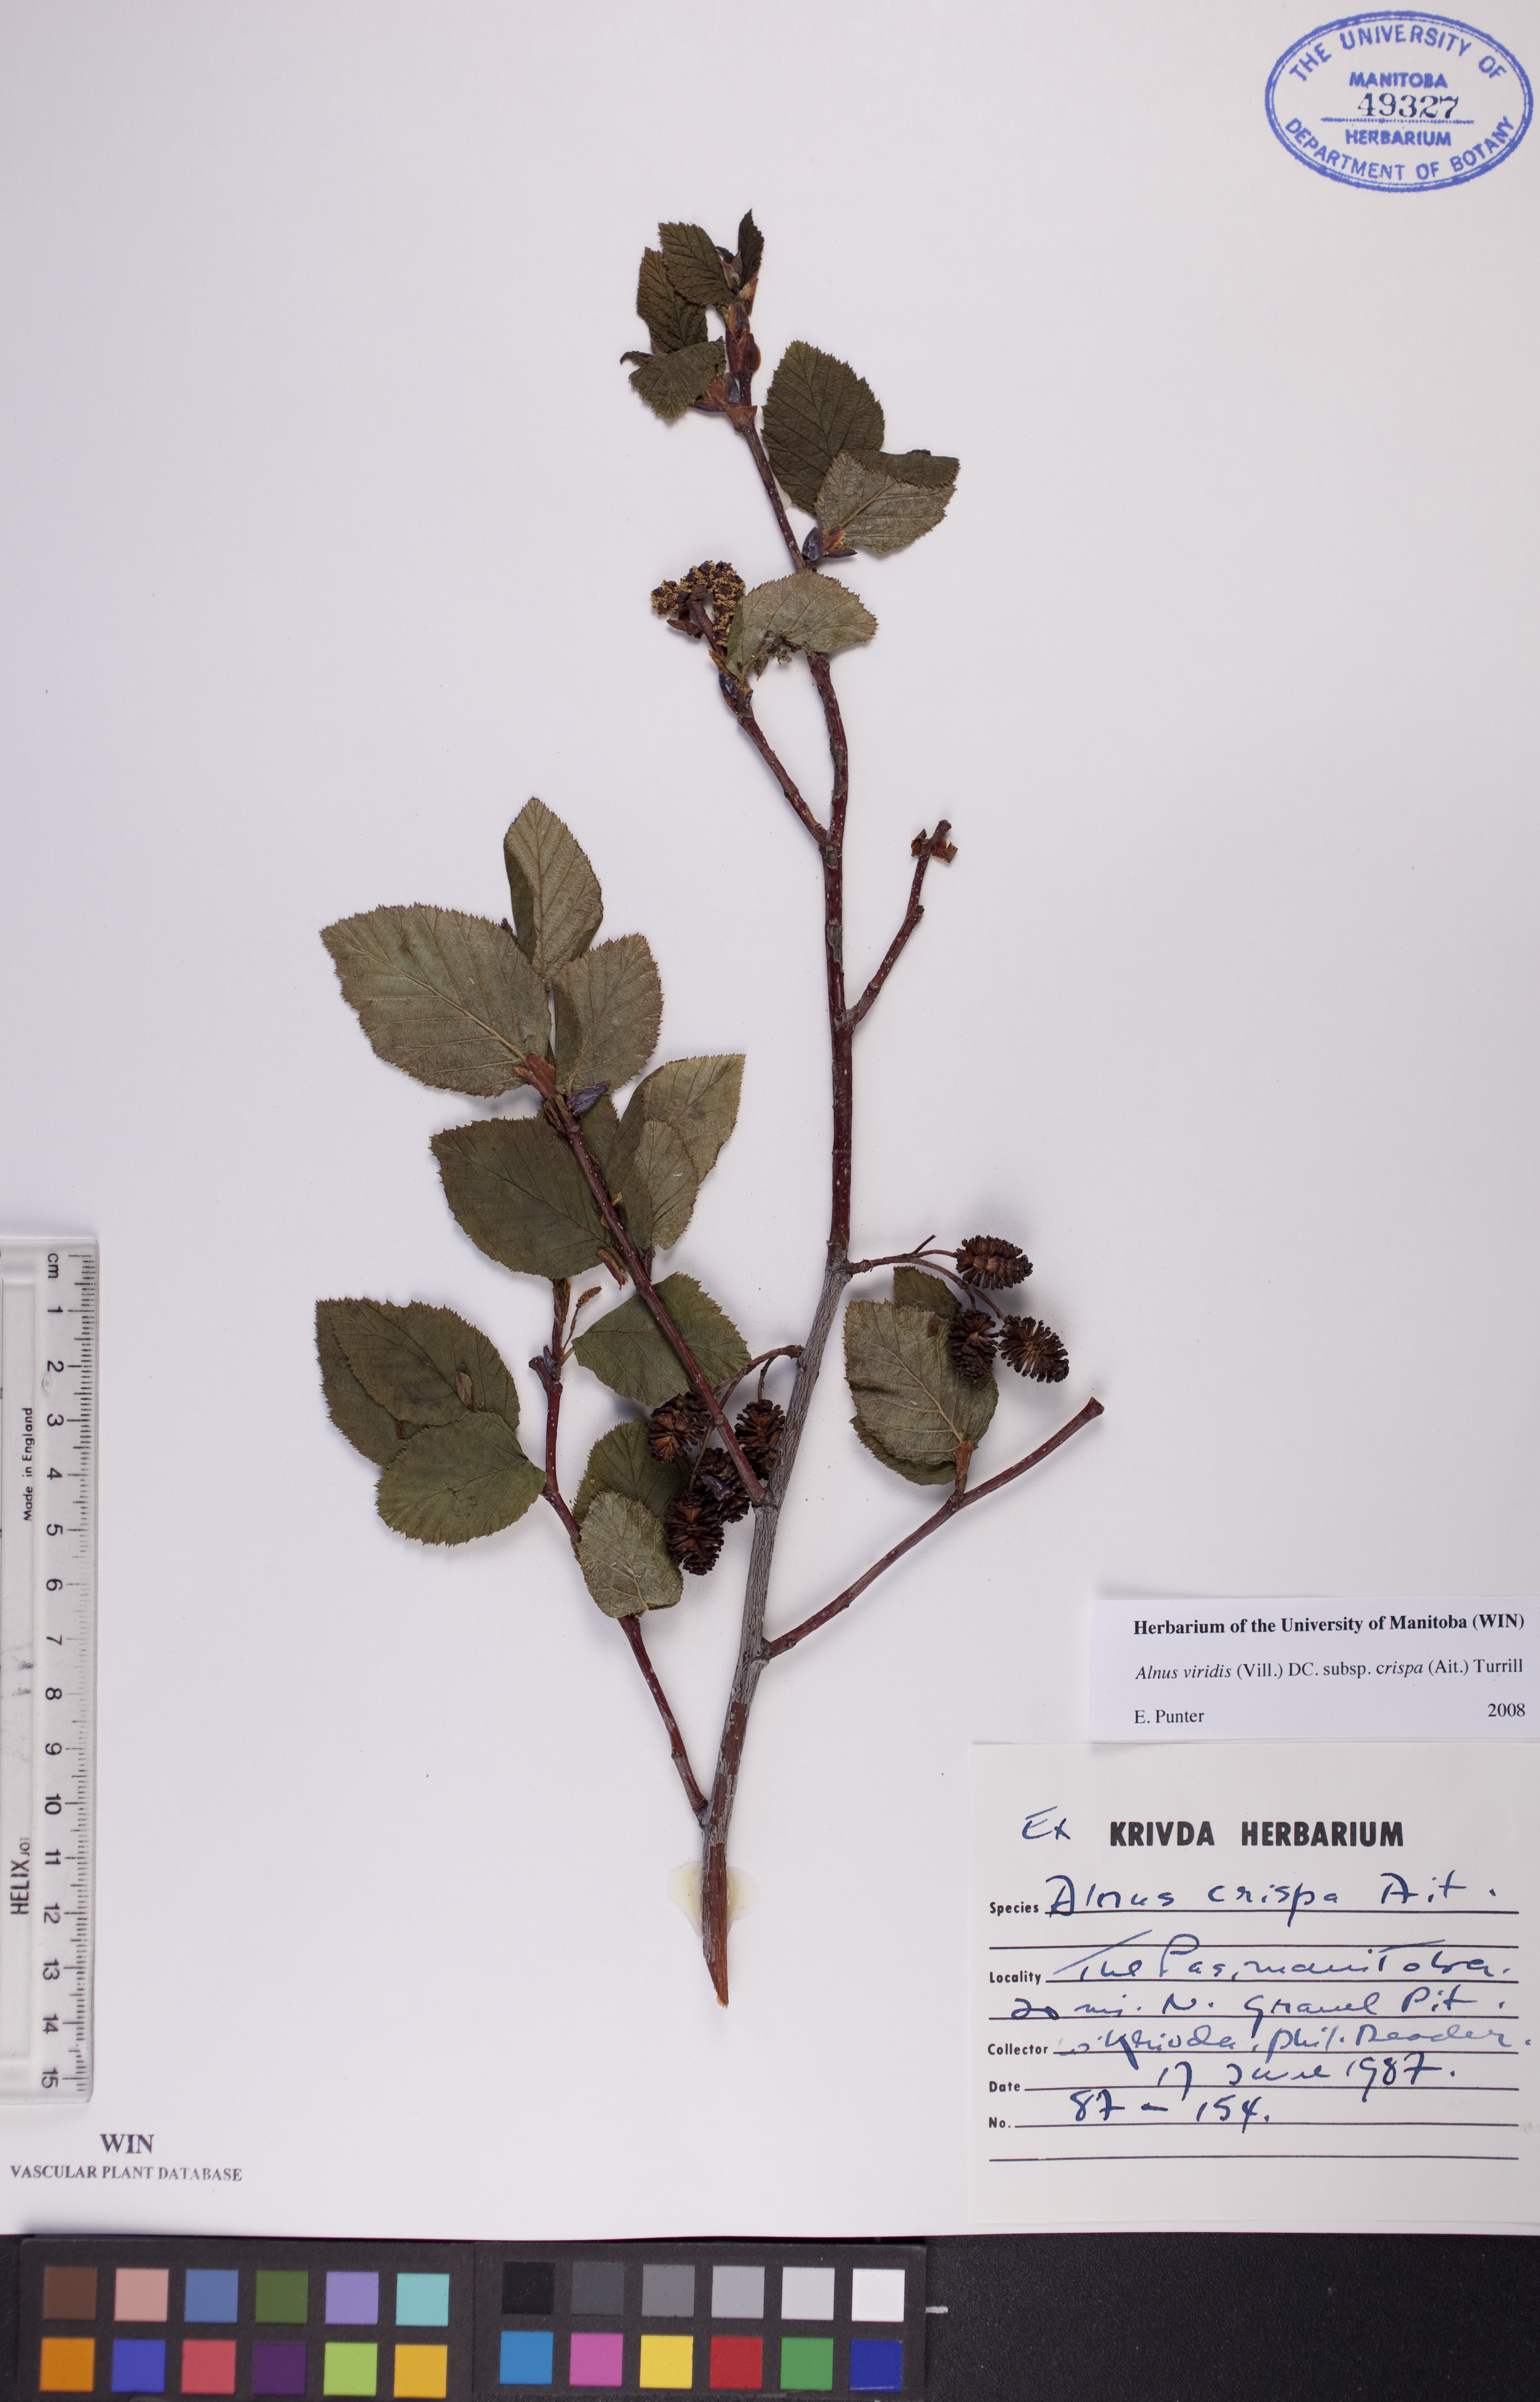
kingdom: Plantae
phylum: Tracheophyta
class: Magnoliopsida
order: Fagales
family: Betulaceae
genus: Alnus
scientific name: Alnus alnobetula
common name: Green alder
